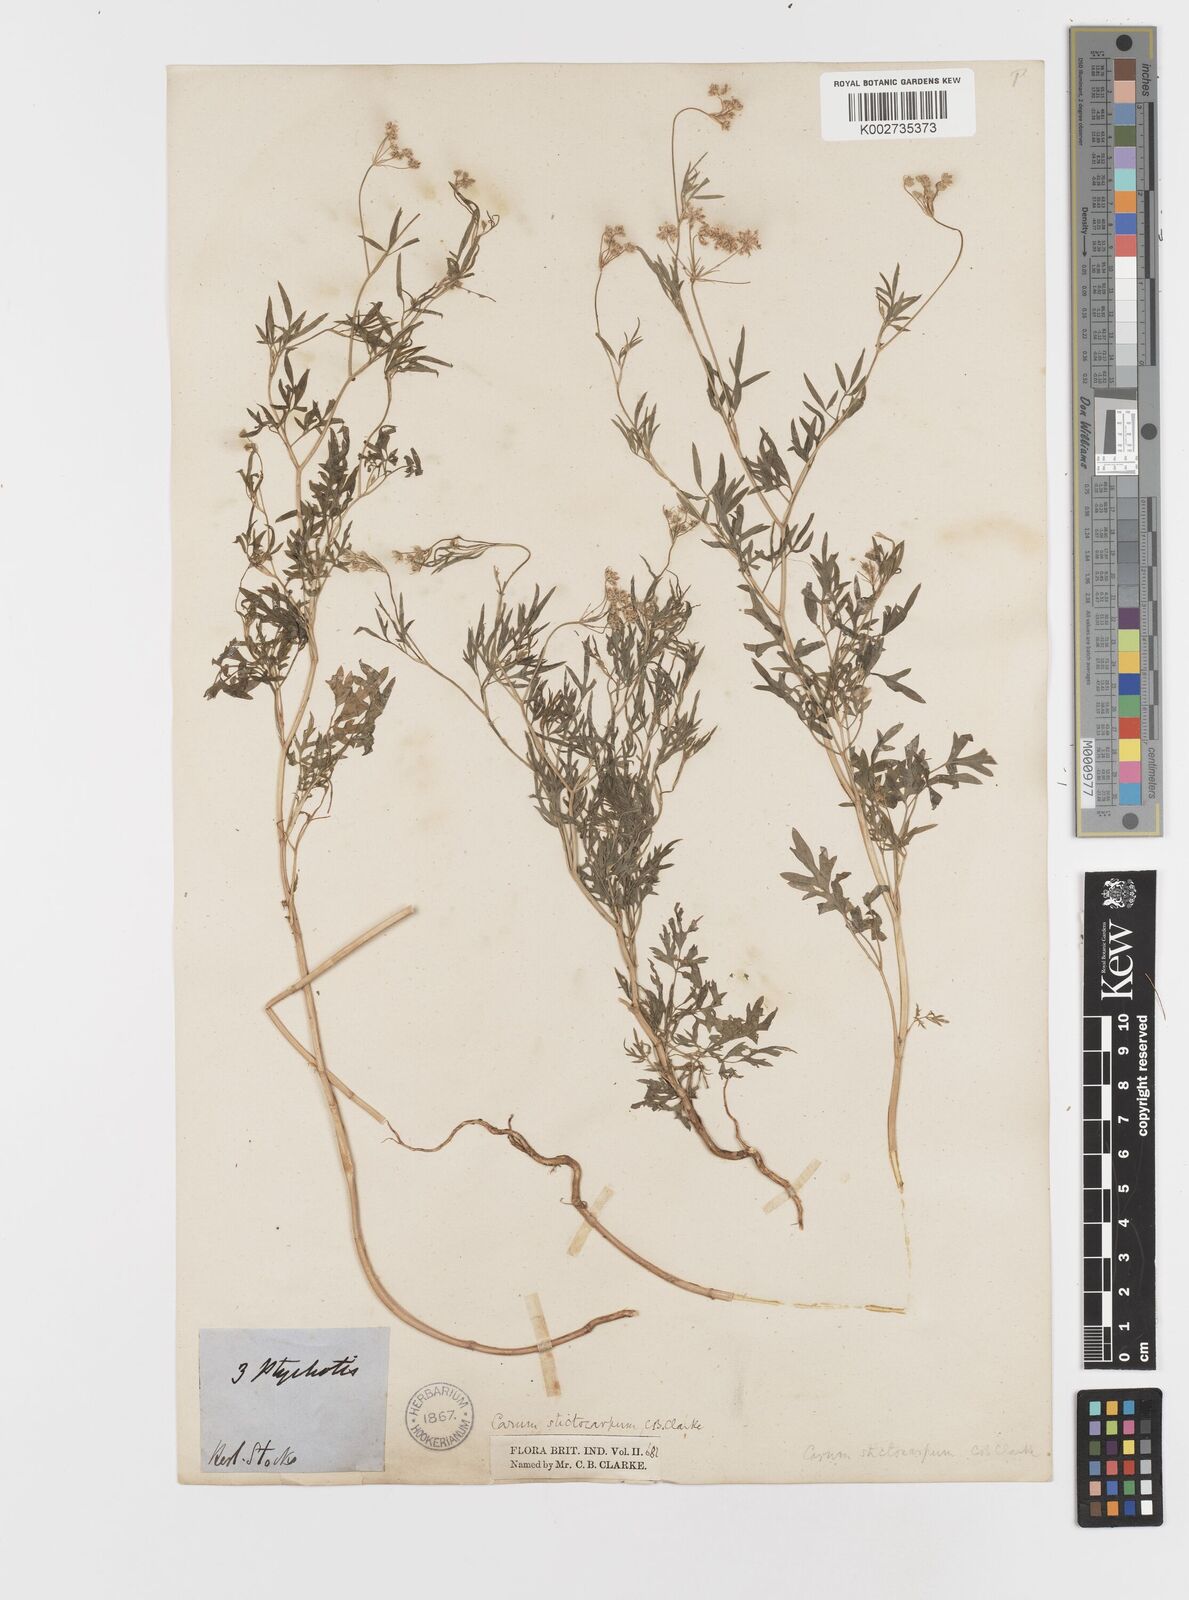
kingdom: Plantae
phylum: Tracheophyta
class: Magnoliopsida
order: Apiales
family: Apiaceae
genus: Psammogeton
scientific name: Psammogeton involucratum
